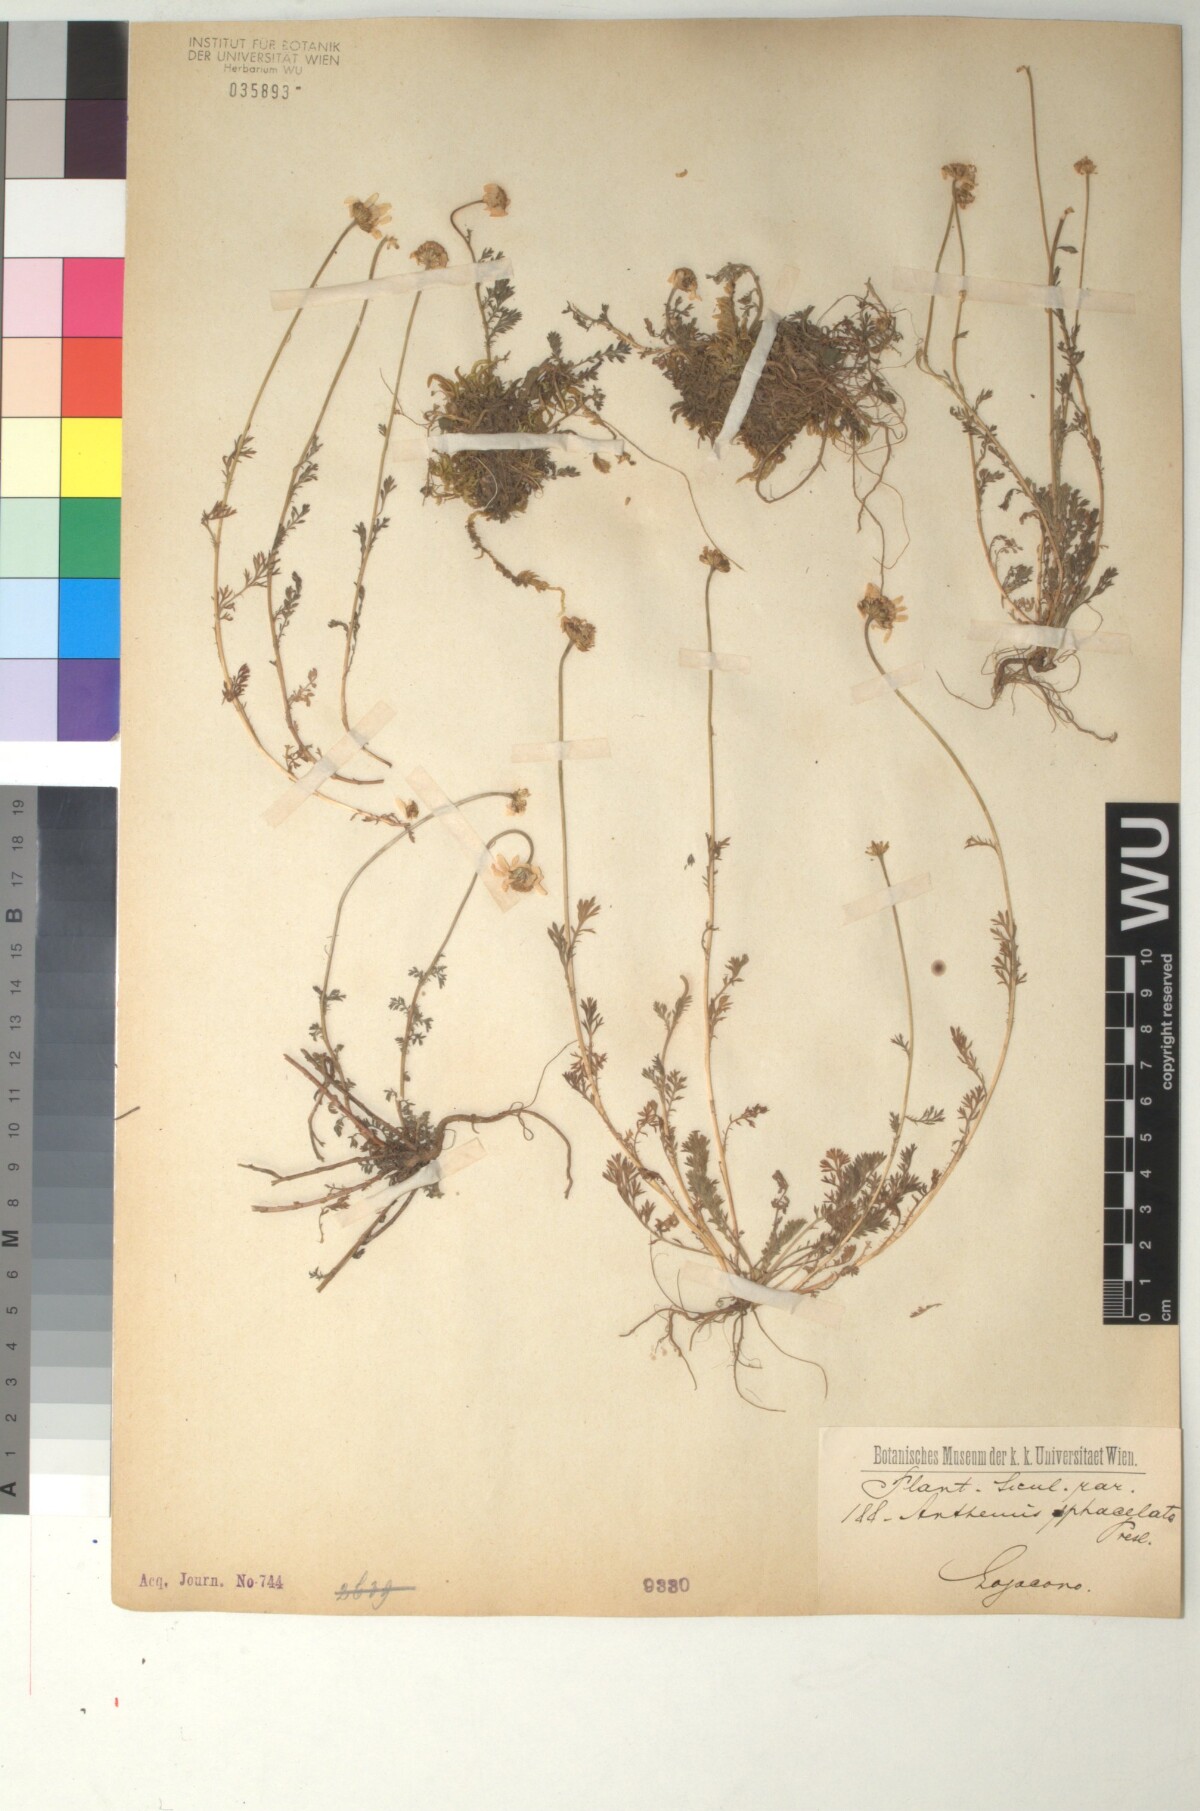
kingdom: Plantae
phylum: Tracheophyta
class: Magnoliopsida
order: Asterales
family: Asteraceae
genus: Anthemis
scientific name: Anthemis arvensis
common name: Corn chamomile
